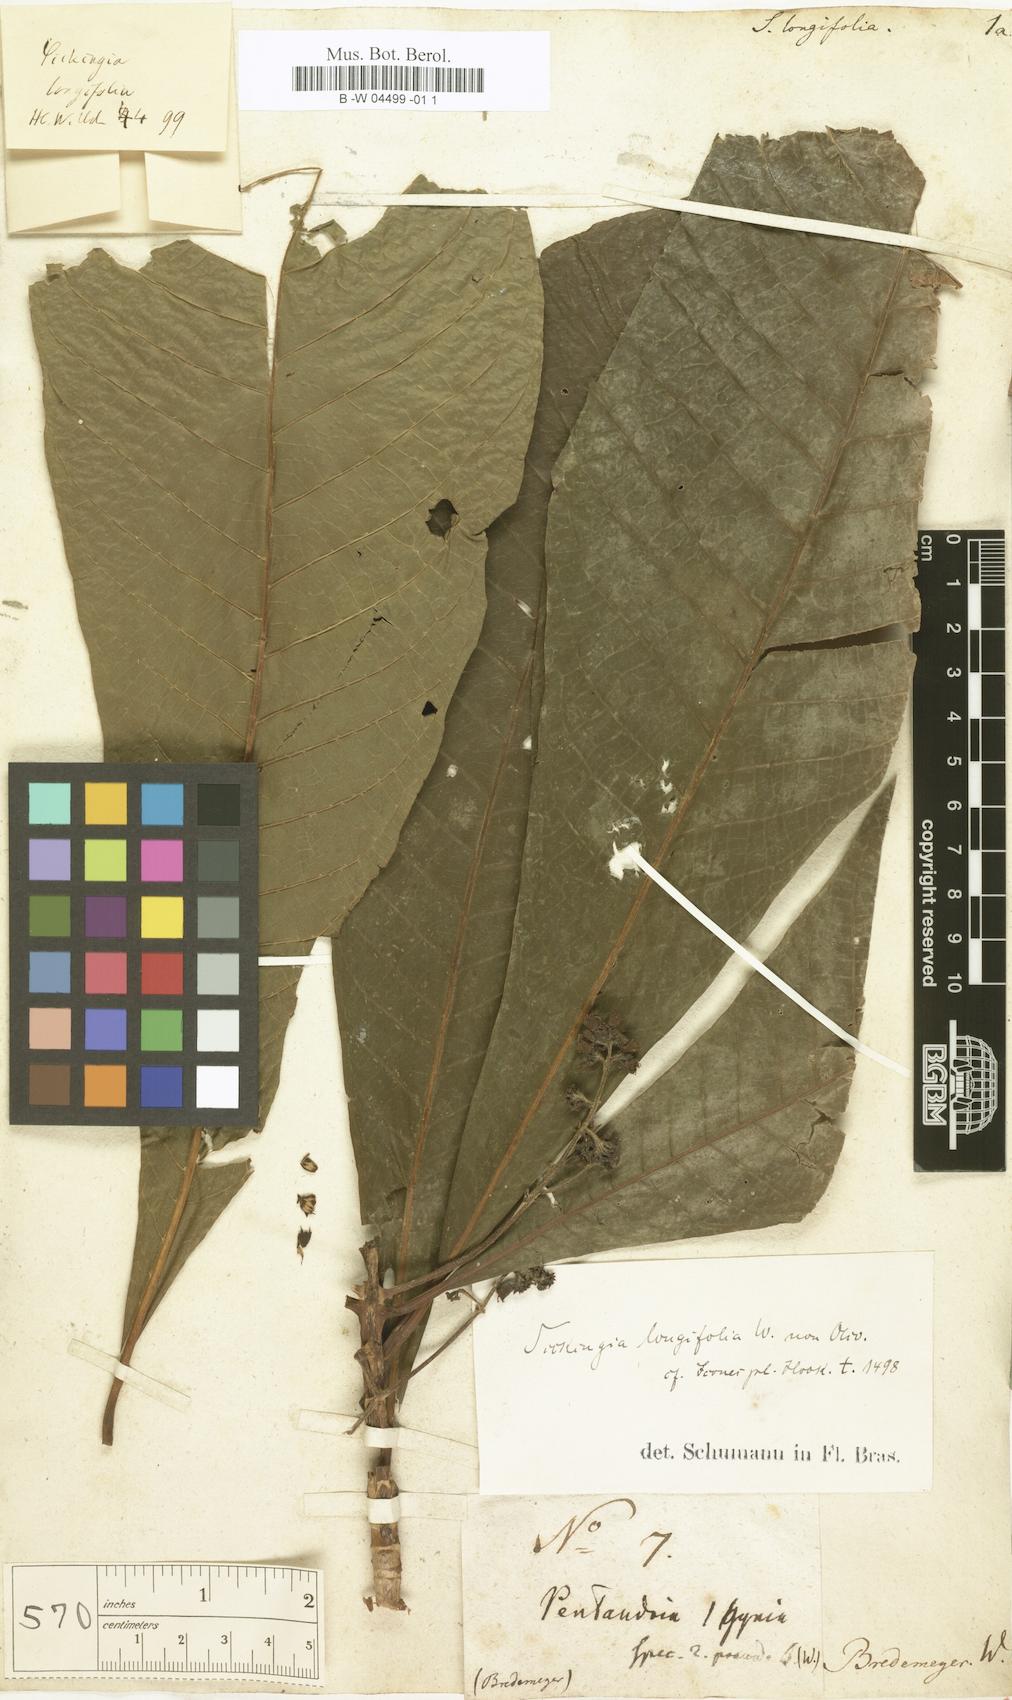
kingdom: Plantae
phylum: Tracheophyta
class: Magnoliopsida
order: Gentianales
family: Rubiaceae
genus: Simira
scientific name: Simira longifolia
